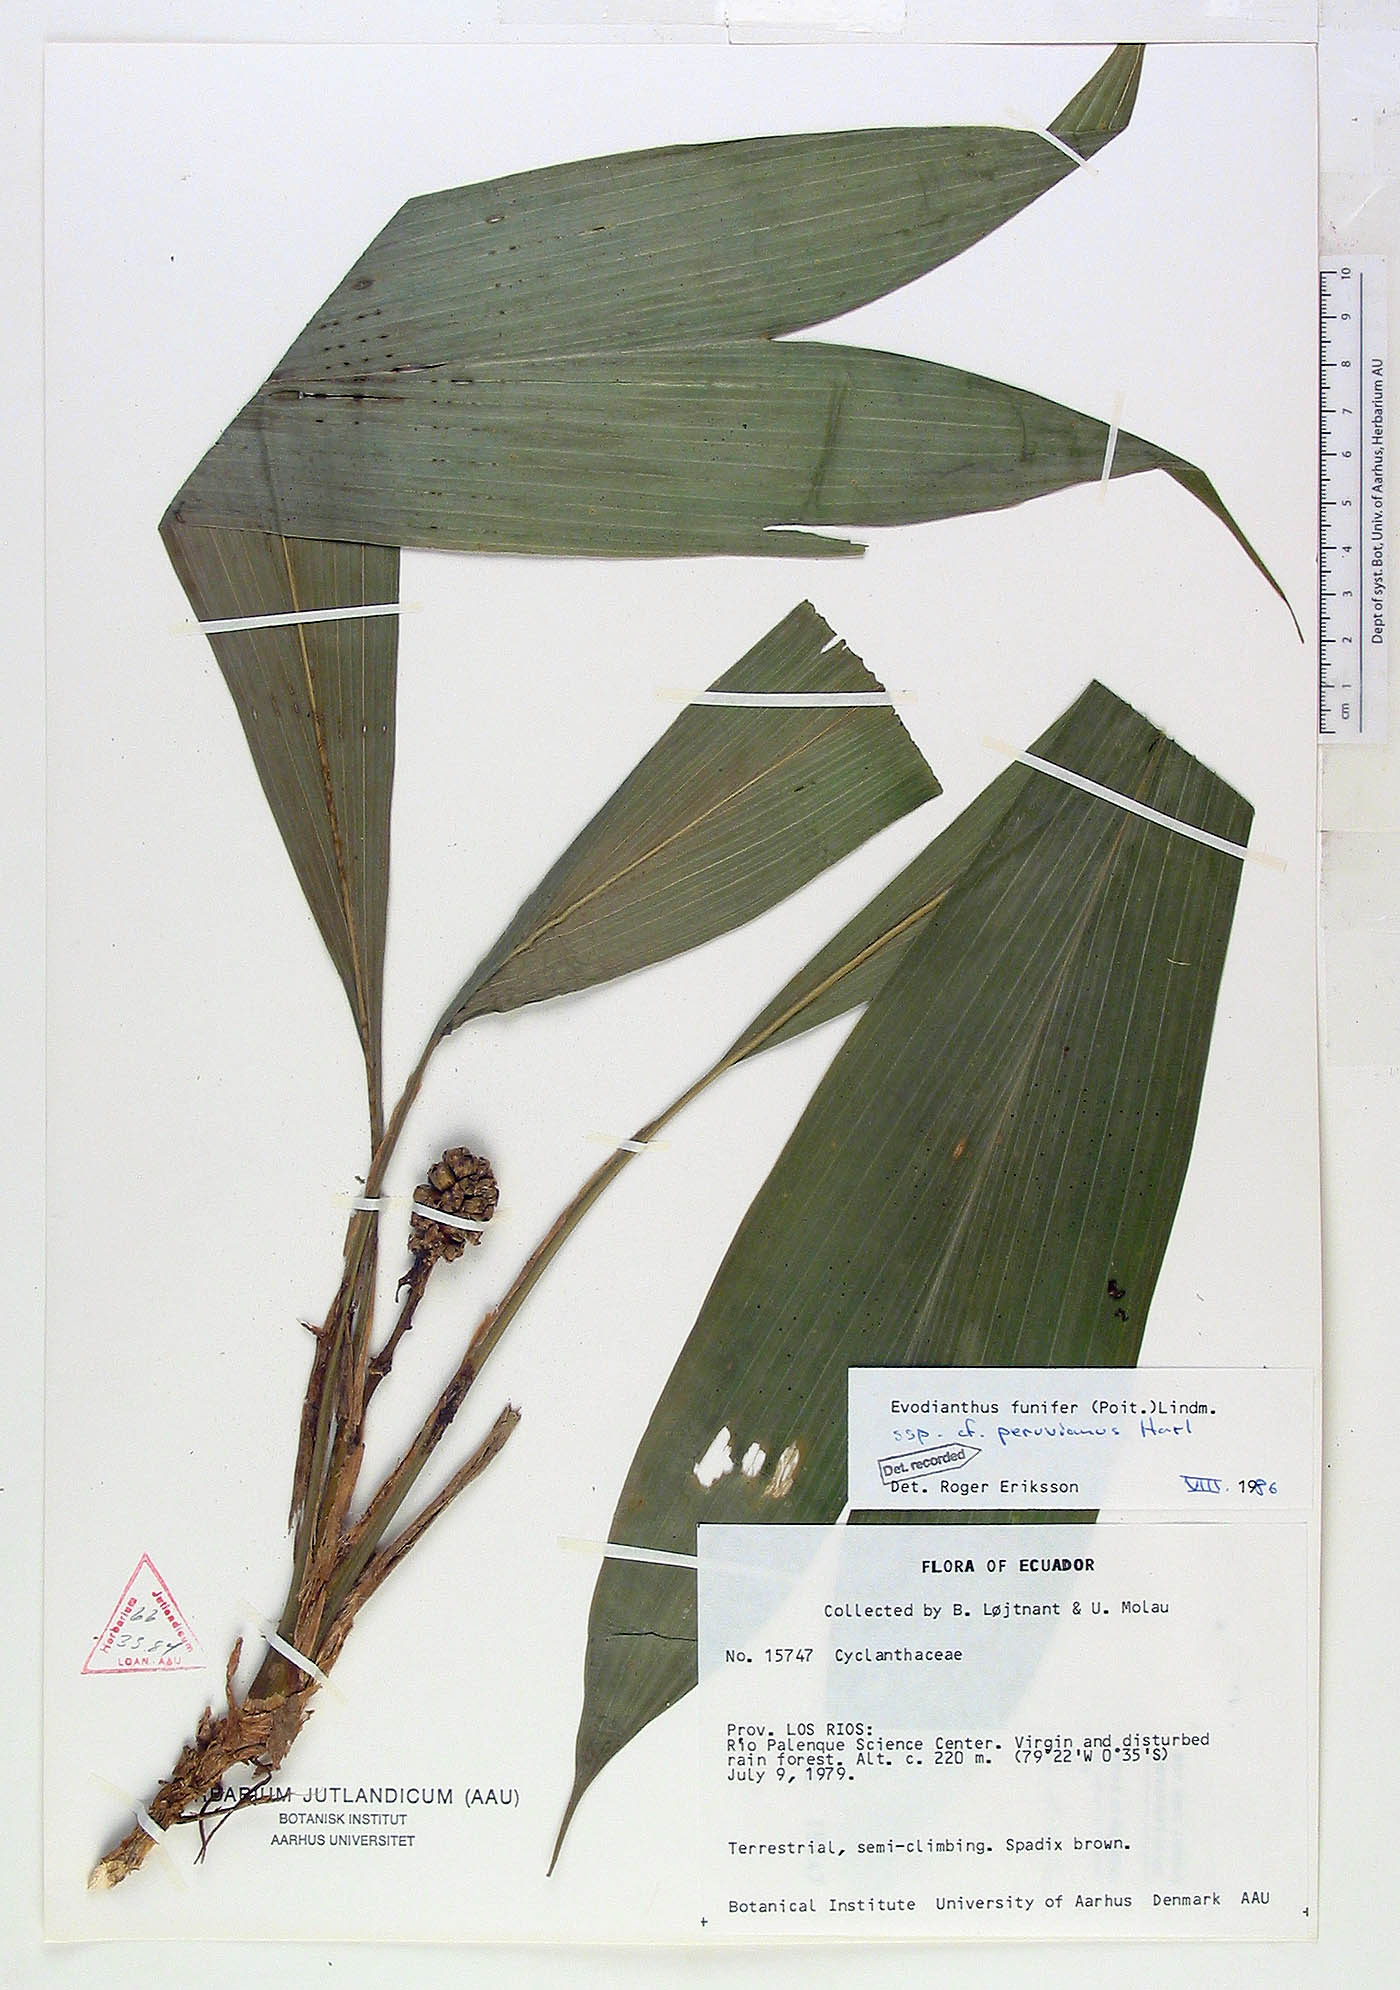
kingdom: Plantae
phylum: Tracheophyta
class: Liliopsida
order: Pandanales
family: Cyclanthaceae
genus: Evodianthus
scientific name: Evodianthus funifer
